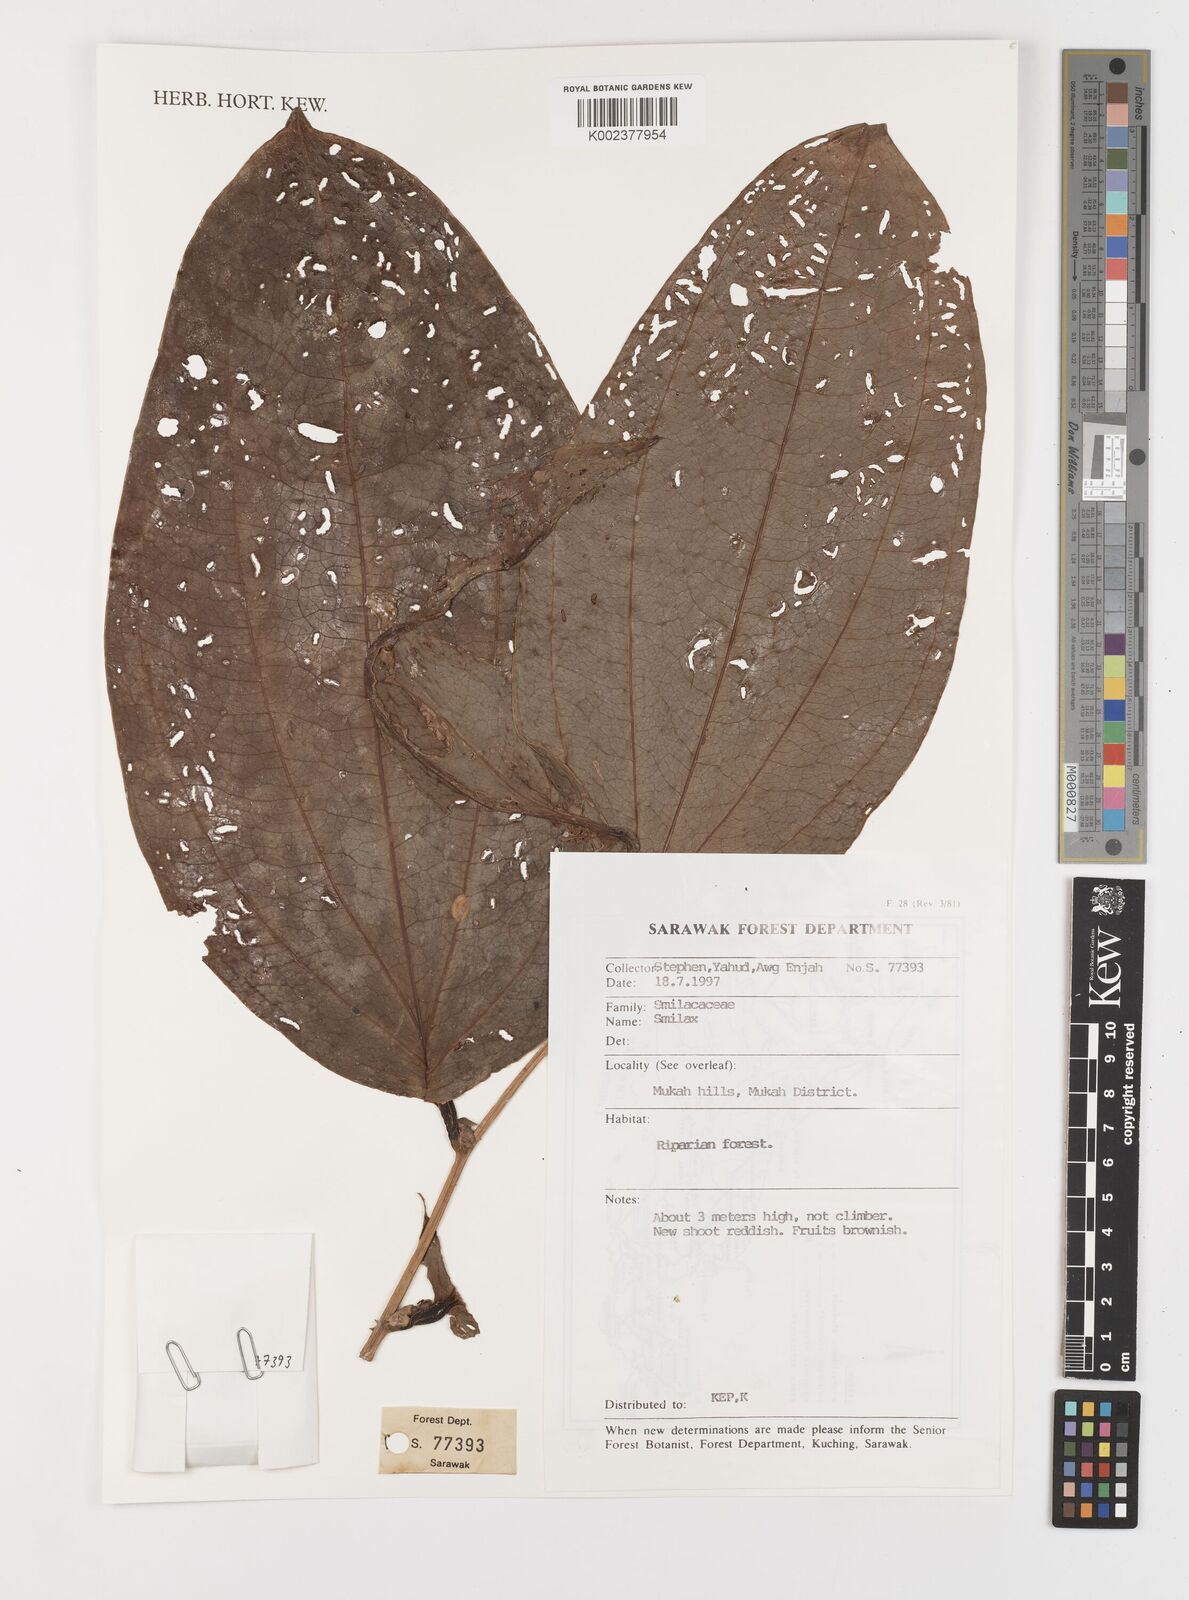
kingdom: Plantae
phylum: Tracheophyta
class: Liliopsida
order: Liliales
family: Smilacaceae
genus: Smilax
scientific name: Smilax
